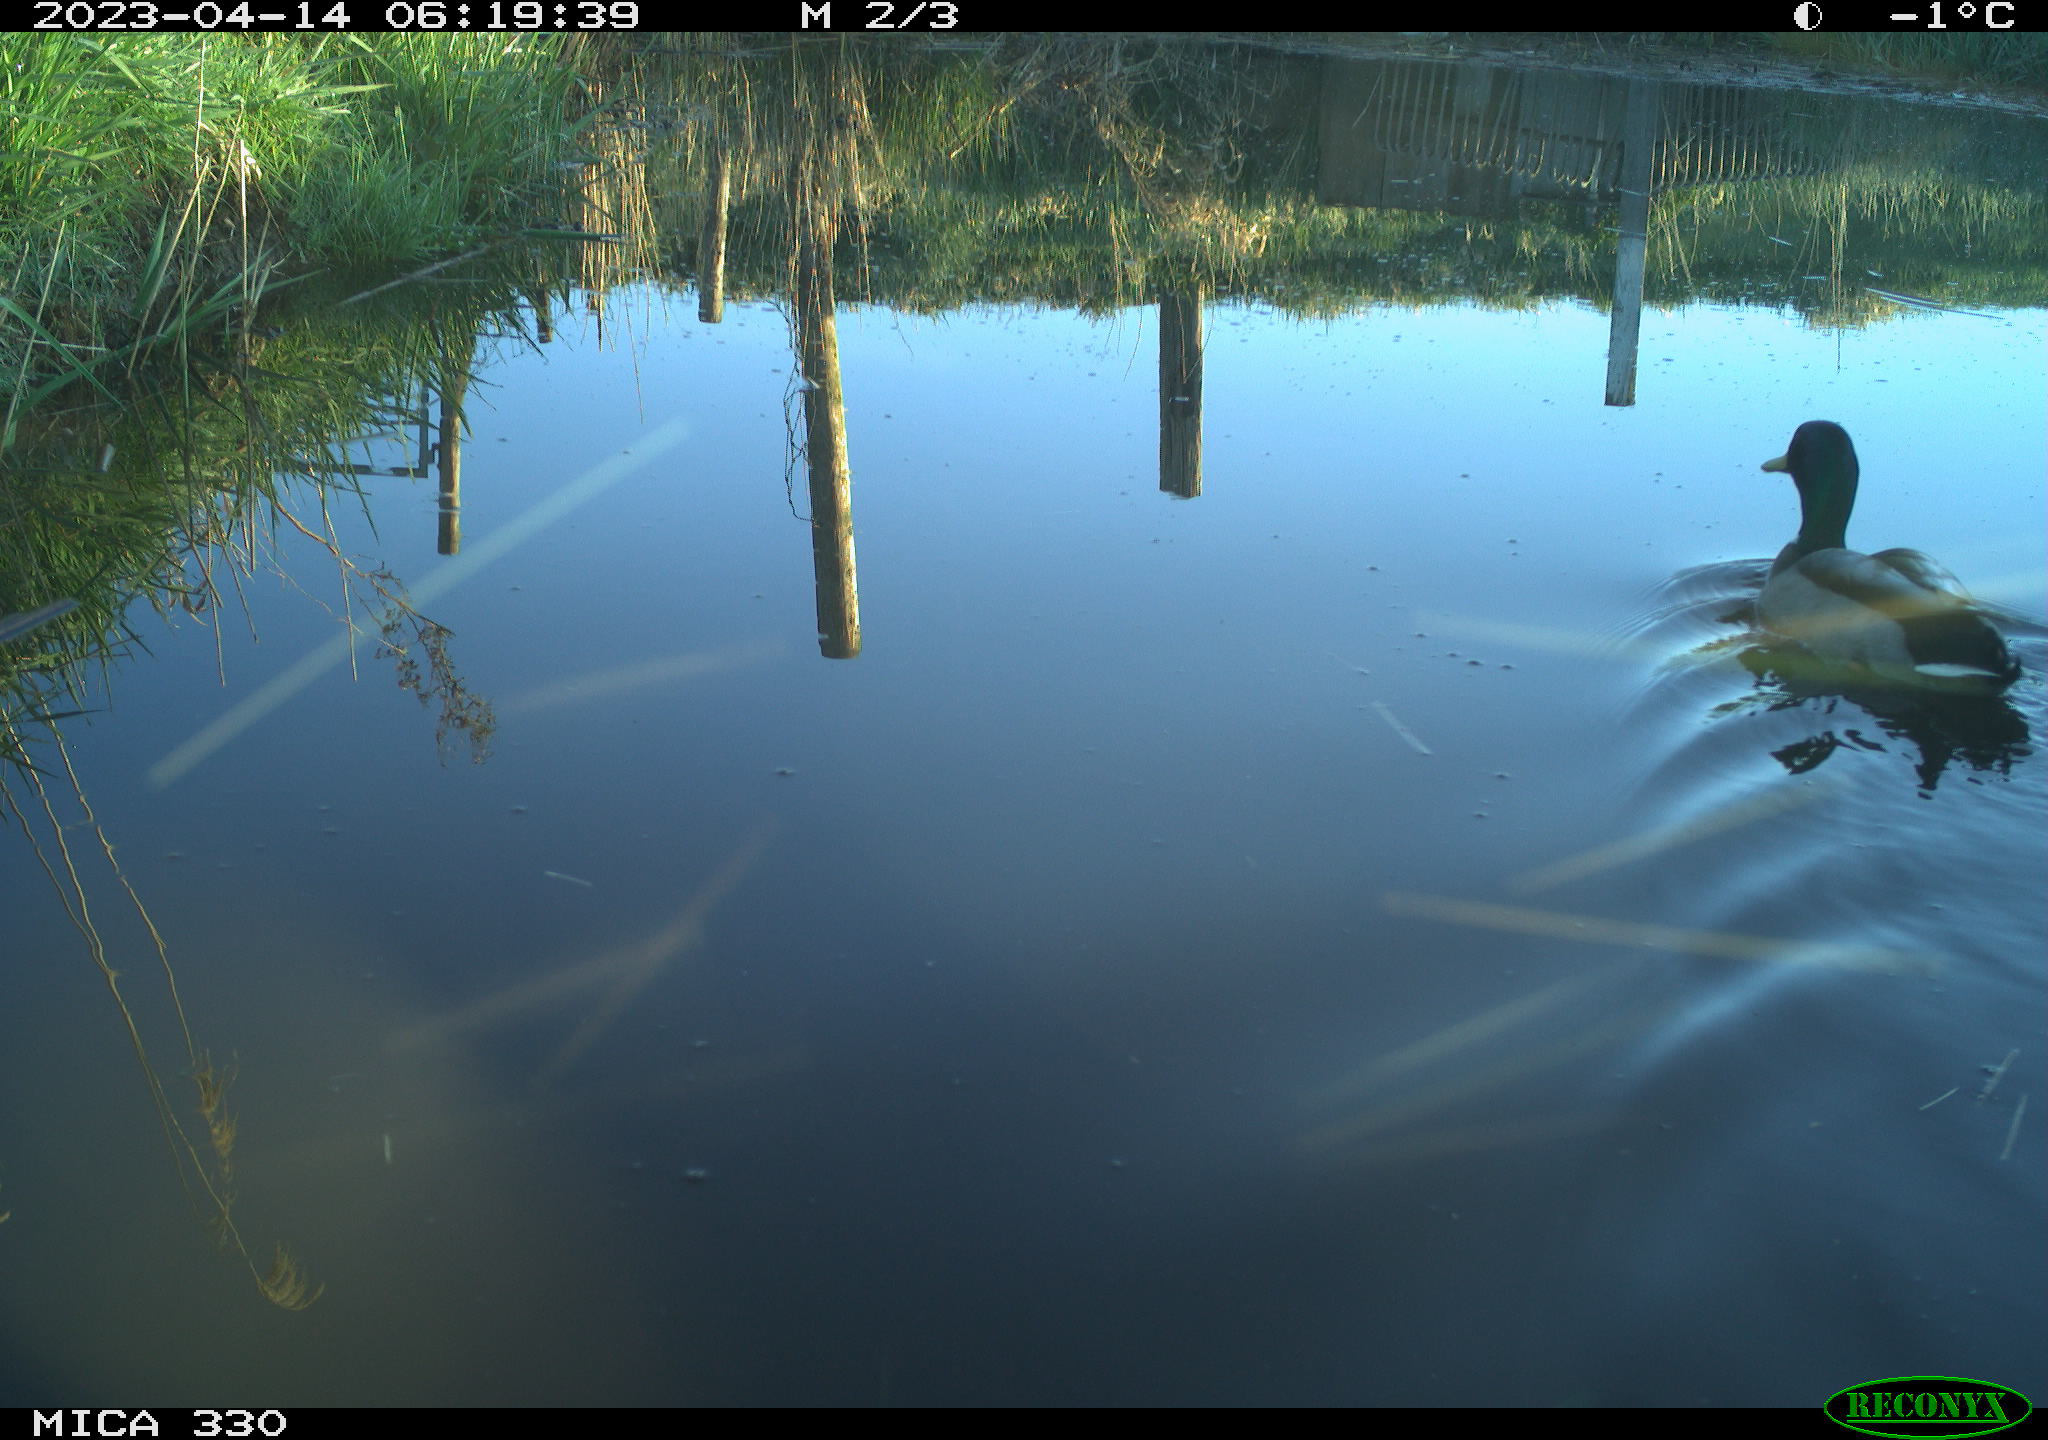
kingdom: Animalia
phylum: Chordata
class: Aves
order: Anseriformes
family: Anatidae
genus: Anas
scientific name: Anas
